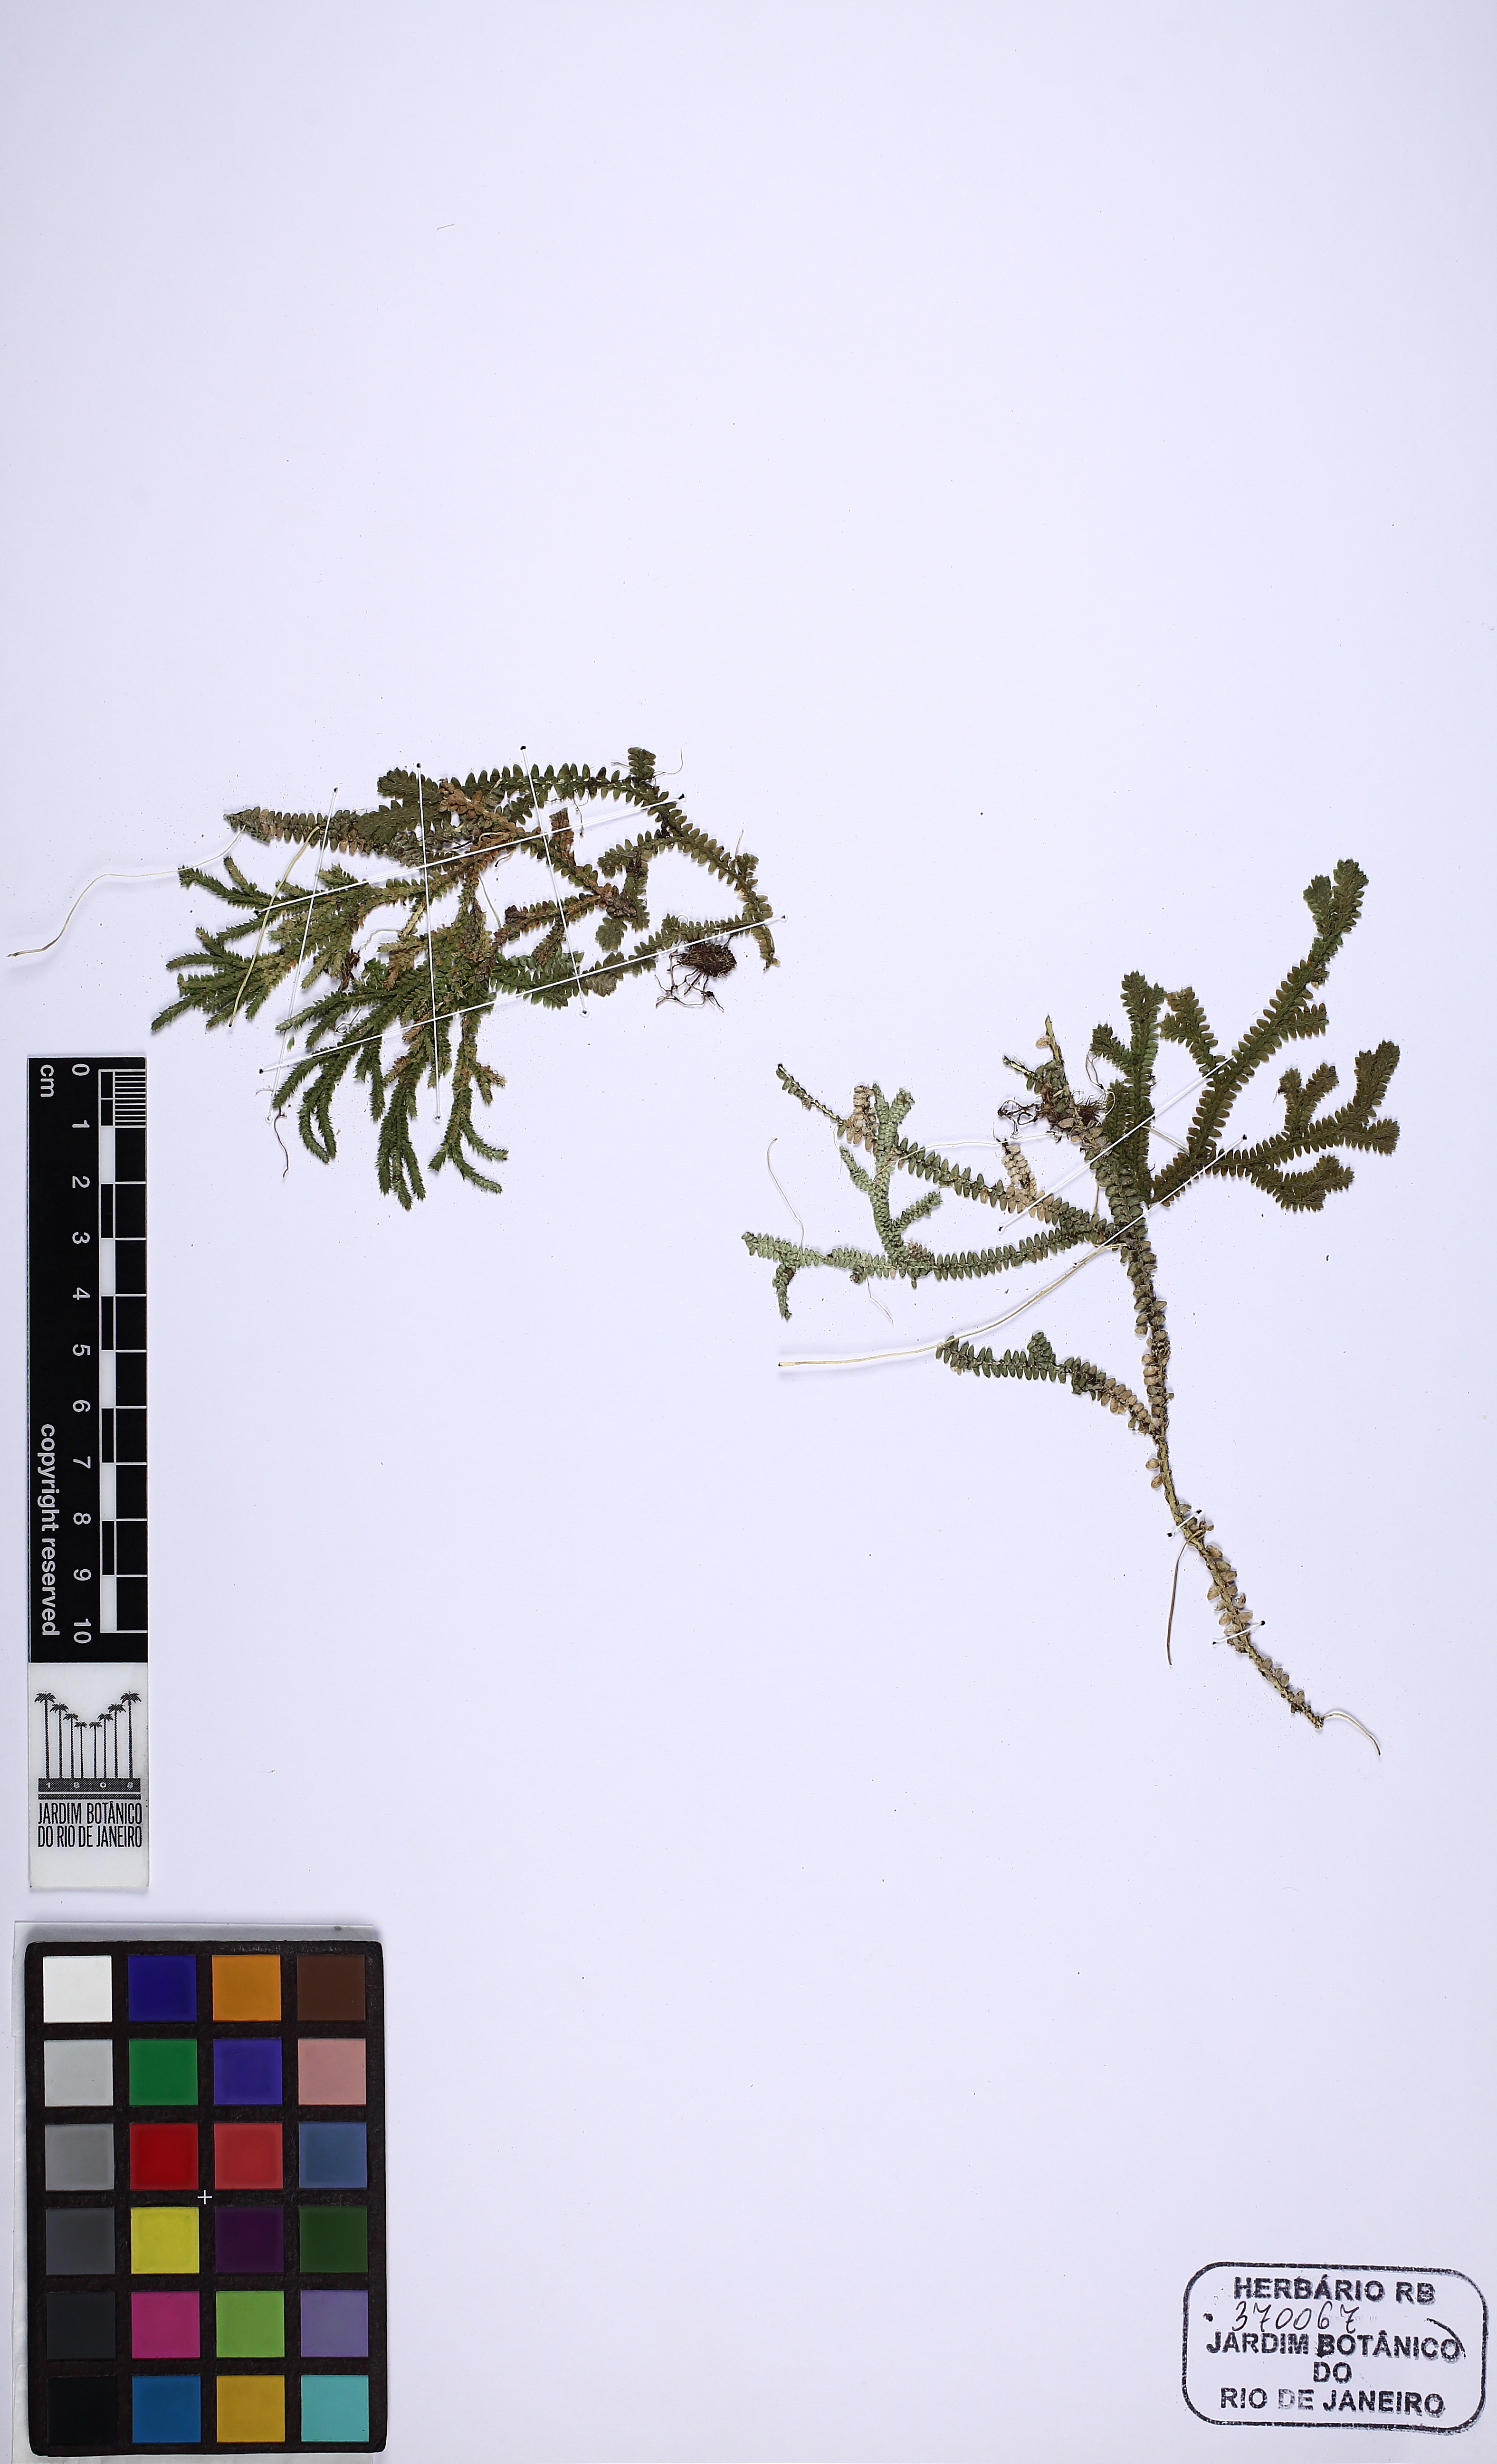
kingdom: Plantae
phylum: Tracheophyta
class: Lycopodiopsida
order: Selaginellales
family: Selaginellaceae
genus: Selaginella
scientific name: Selaginella flexuosa
